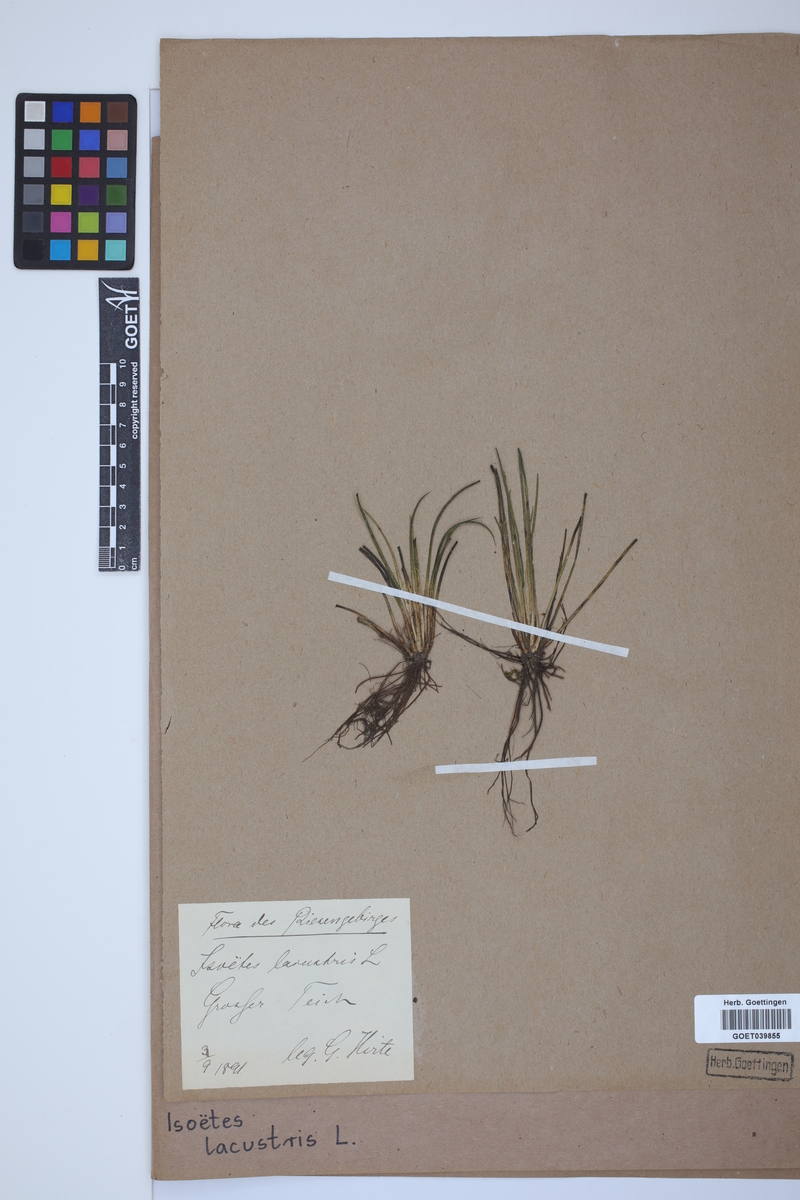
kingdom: Plantae
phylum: Tracheophyta
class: Lycopodiopsida
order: Isoetales
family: Isoetaceae
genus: Isoetes
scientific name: Isoetes lacustris
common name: Common quillwort
